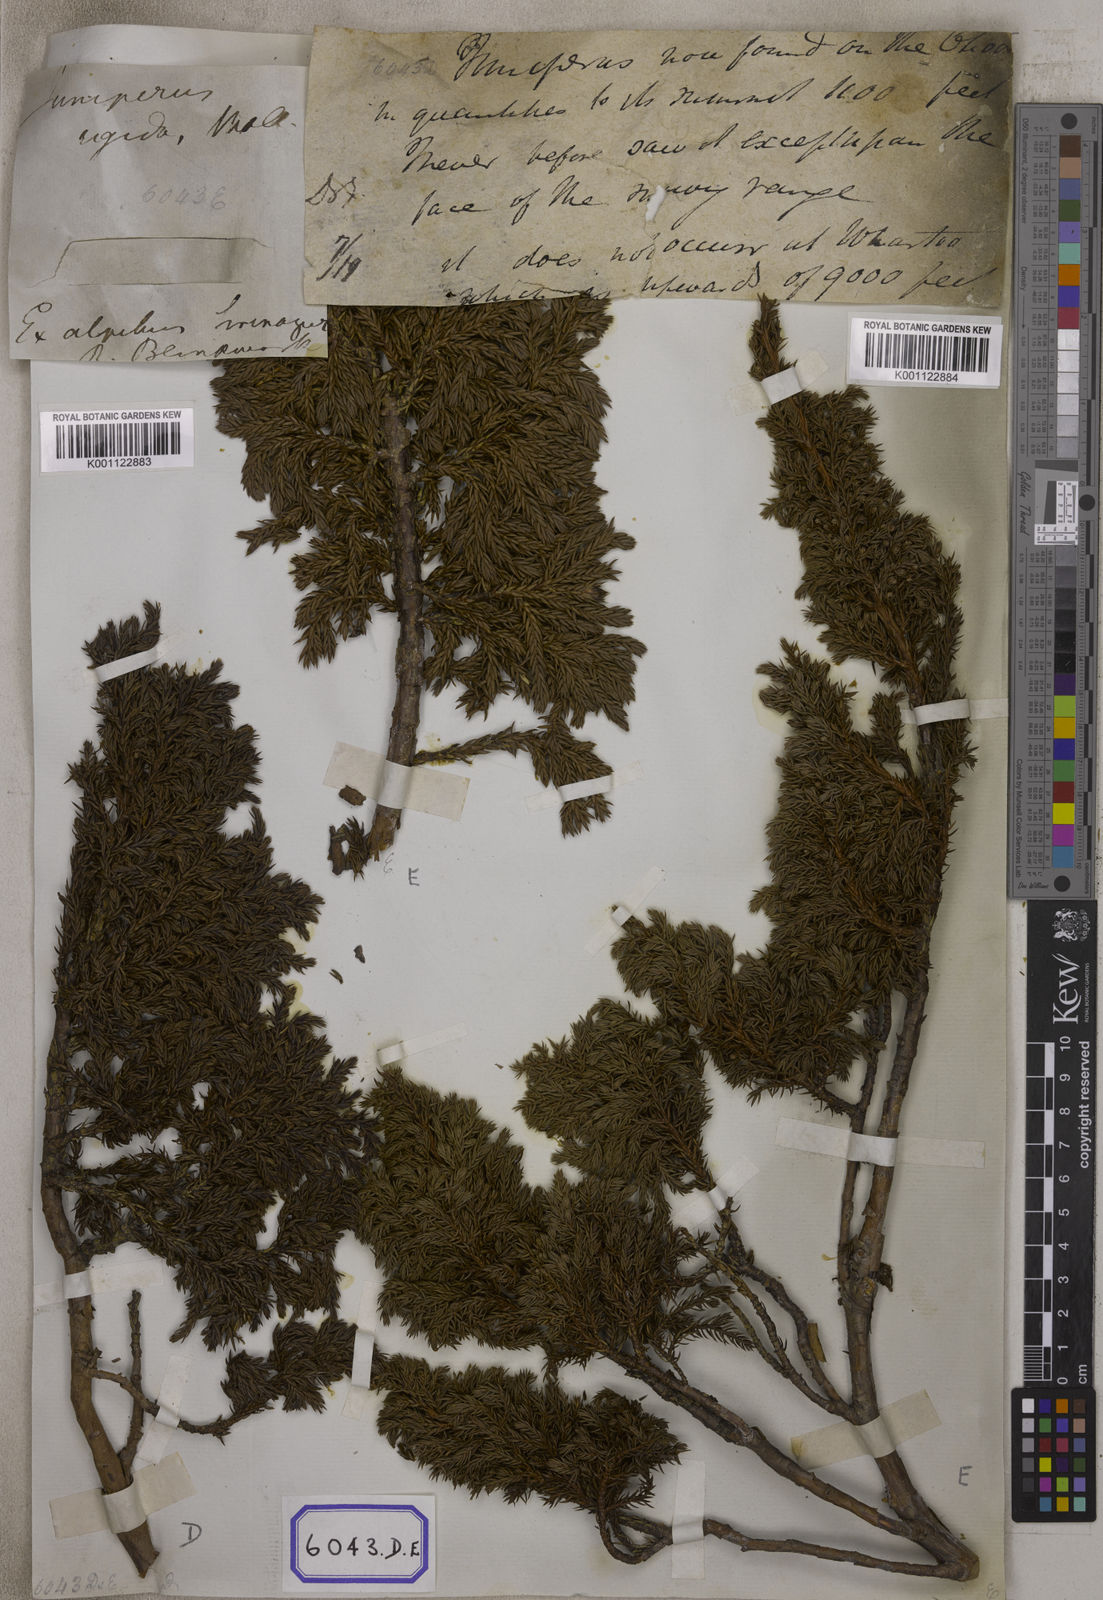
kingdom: Plantae
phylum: Tracheophyta
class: Pinopsida
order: Pinales
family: Cupressaceae
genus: Juniperus
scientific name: Juniperus
